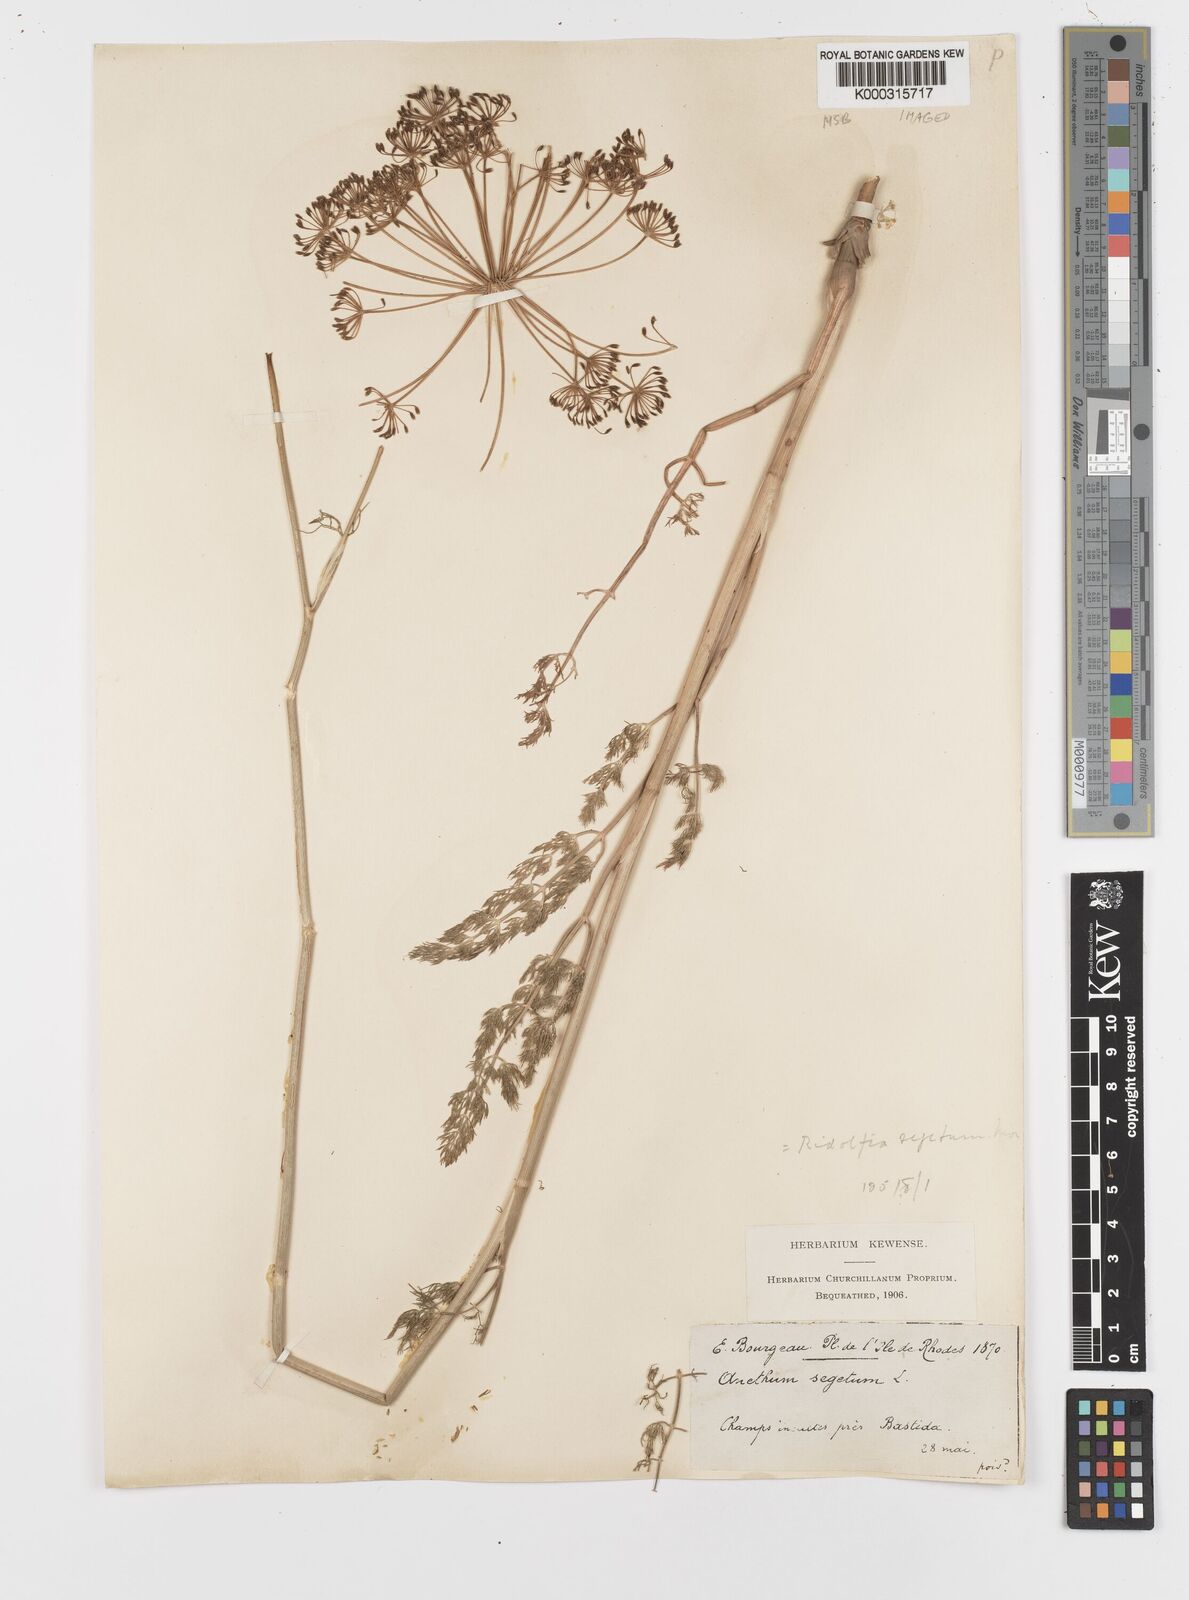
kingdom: Plantae
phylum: Tracheophyta
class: Magnoliopsida
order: Apiales
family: Apiaceae
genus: Anethum
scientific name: Anethum ridolfia
